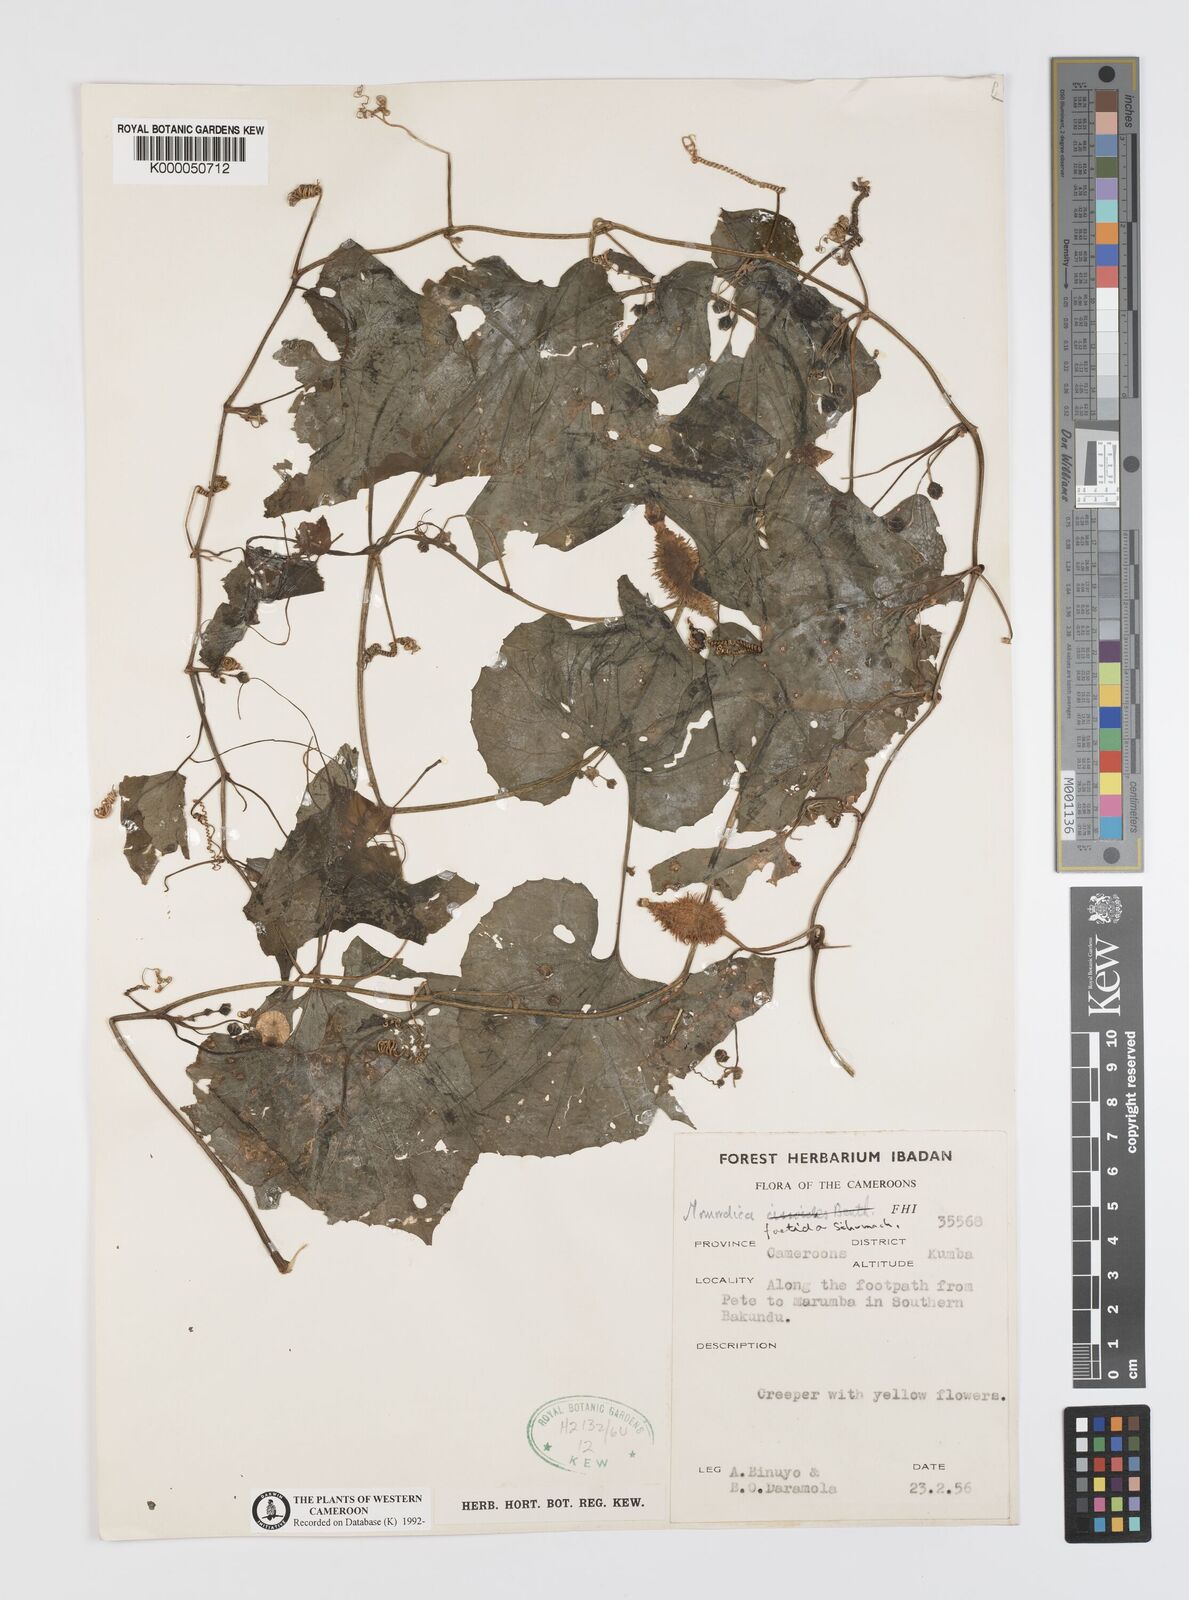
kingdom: Plantae
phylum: Tracheophyta
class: Magnoliopsida
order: Cucurbitales
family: Cucurbitaceae
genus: Momordica
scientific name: Momordica foetida
